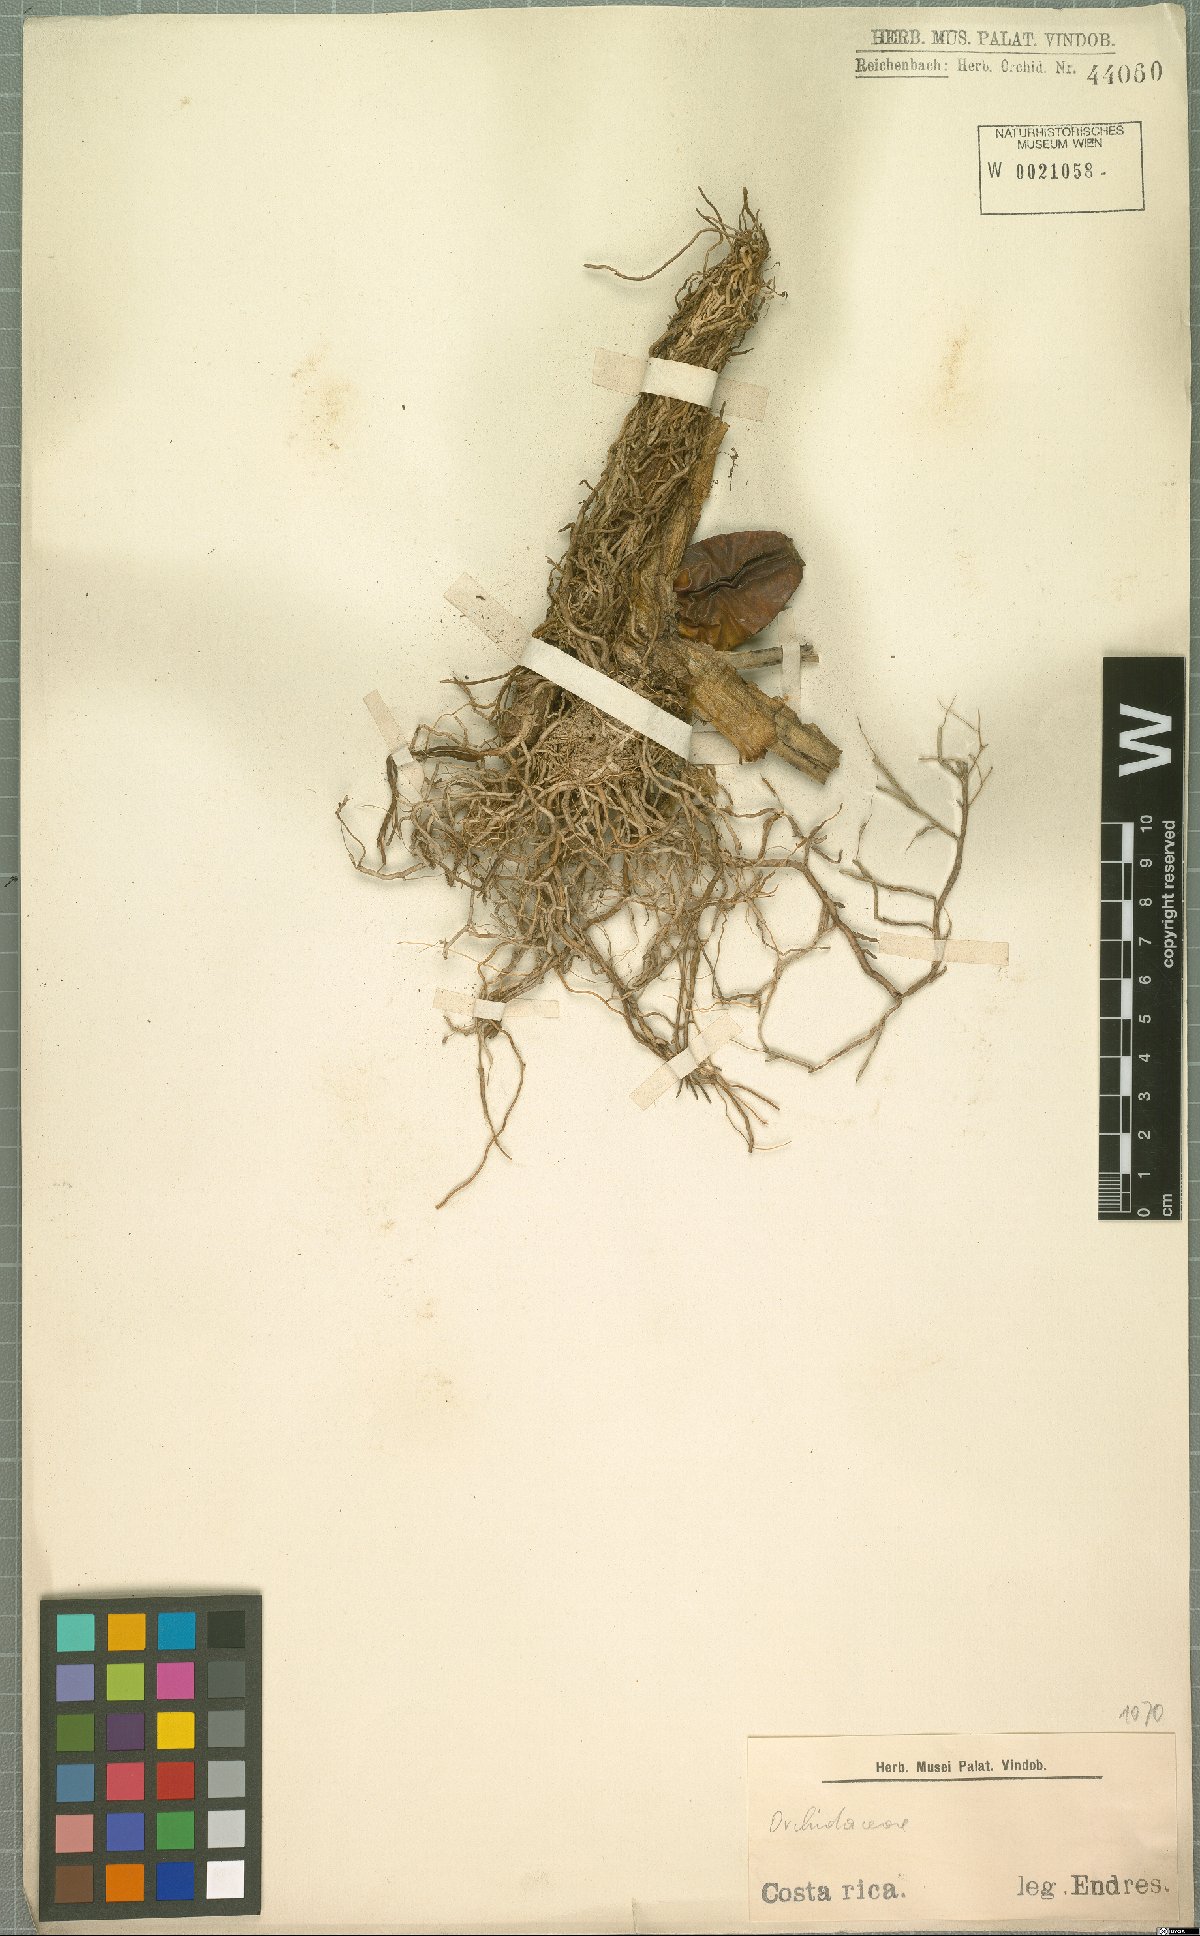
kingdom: Plantae
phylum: Tracheophyta
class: Liliopsida
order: Asparagales
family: Orchidaceae
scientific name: Orchidaceae
